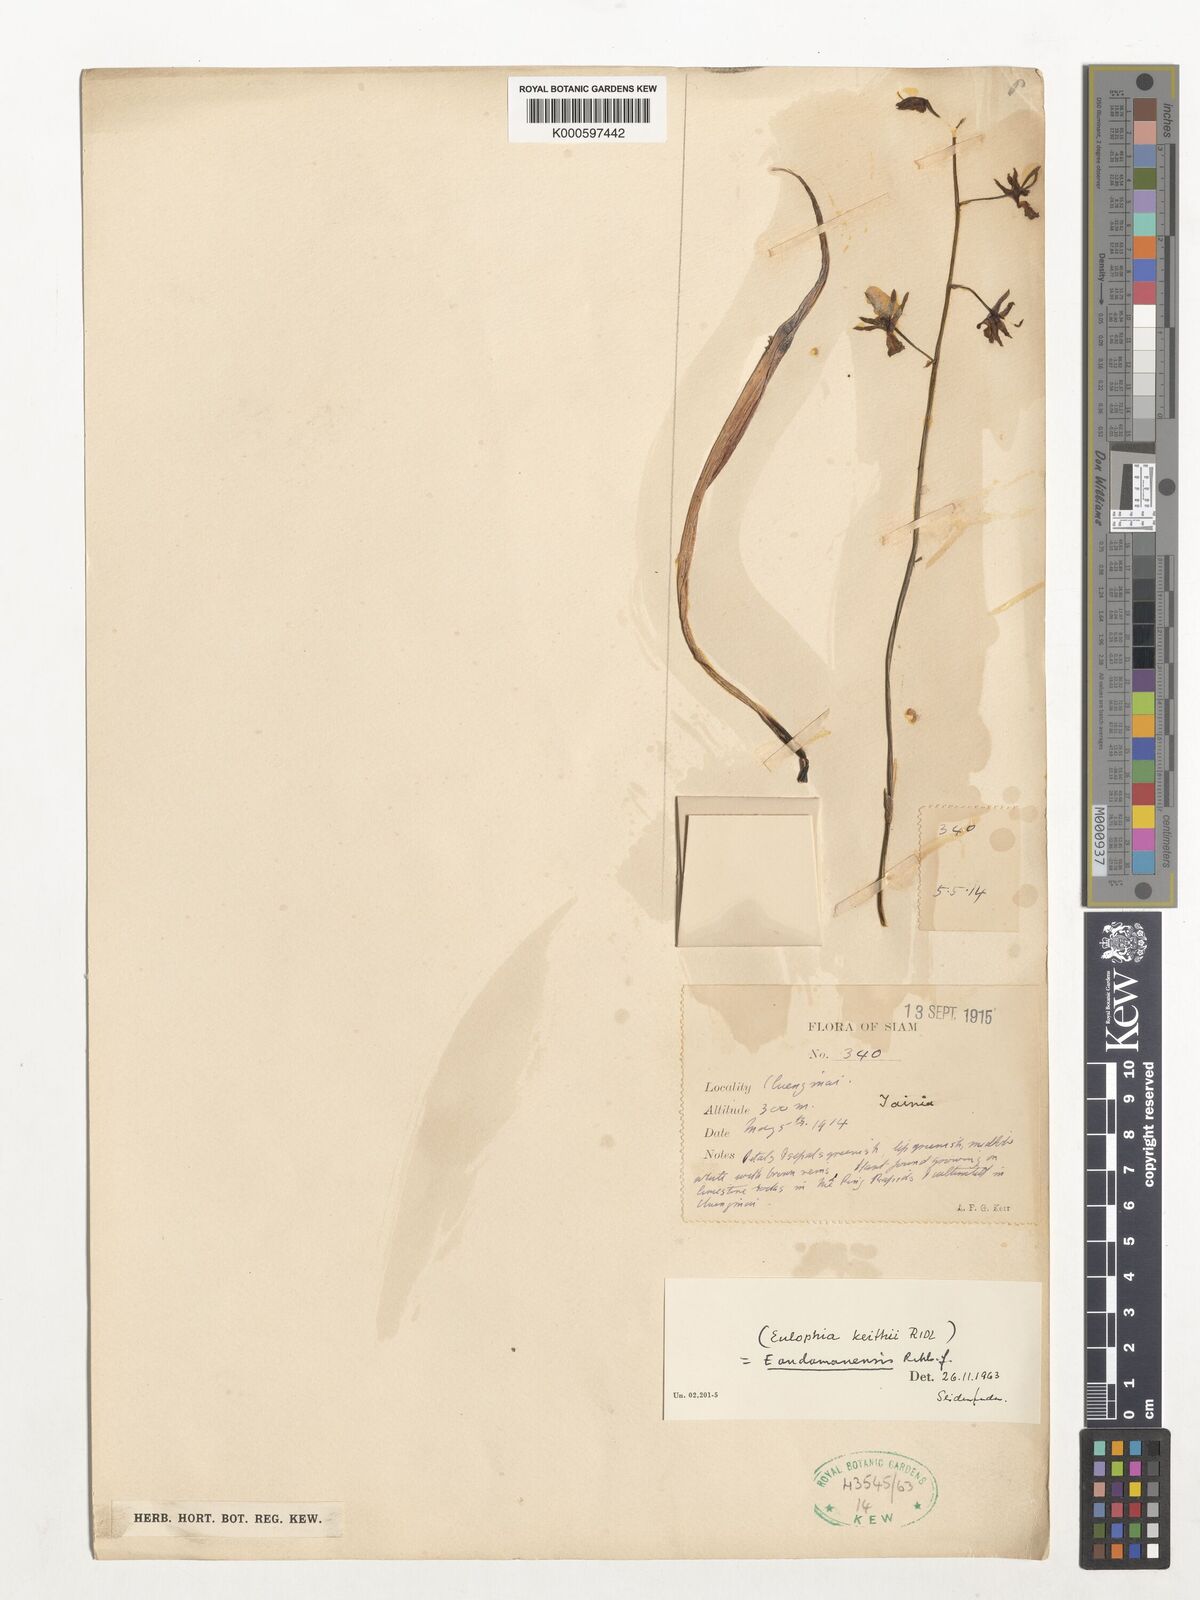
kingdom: Plantae
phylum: Tracheophyta
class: Liliopsida
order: Asparagales
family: Orchidaceae
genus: Eulophia
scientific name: Eulophia andamanensis
